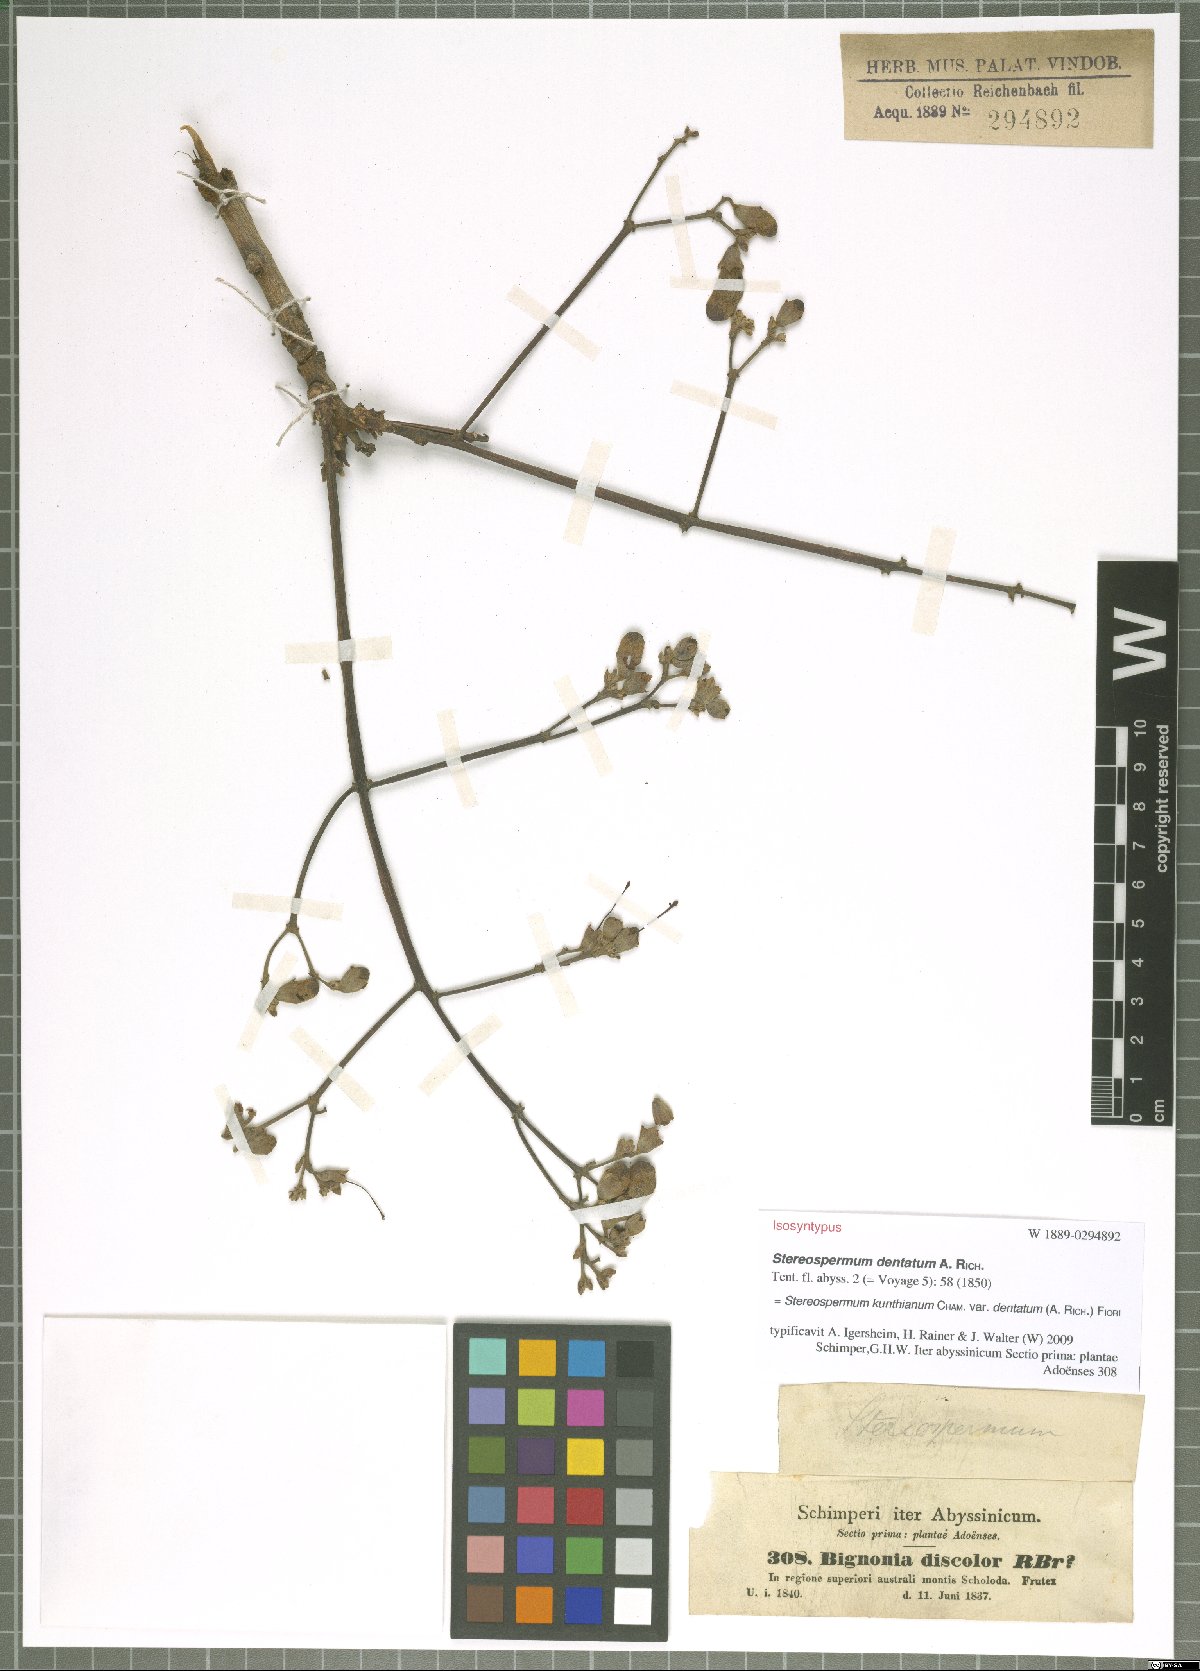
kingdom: Plantae
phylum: Tracheophyta
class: Magnoliopsida
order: Lamiales
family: Bignoniaceae
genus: Stereospermum
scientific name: Stereospermum kunthianum
